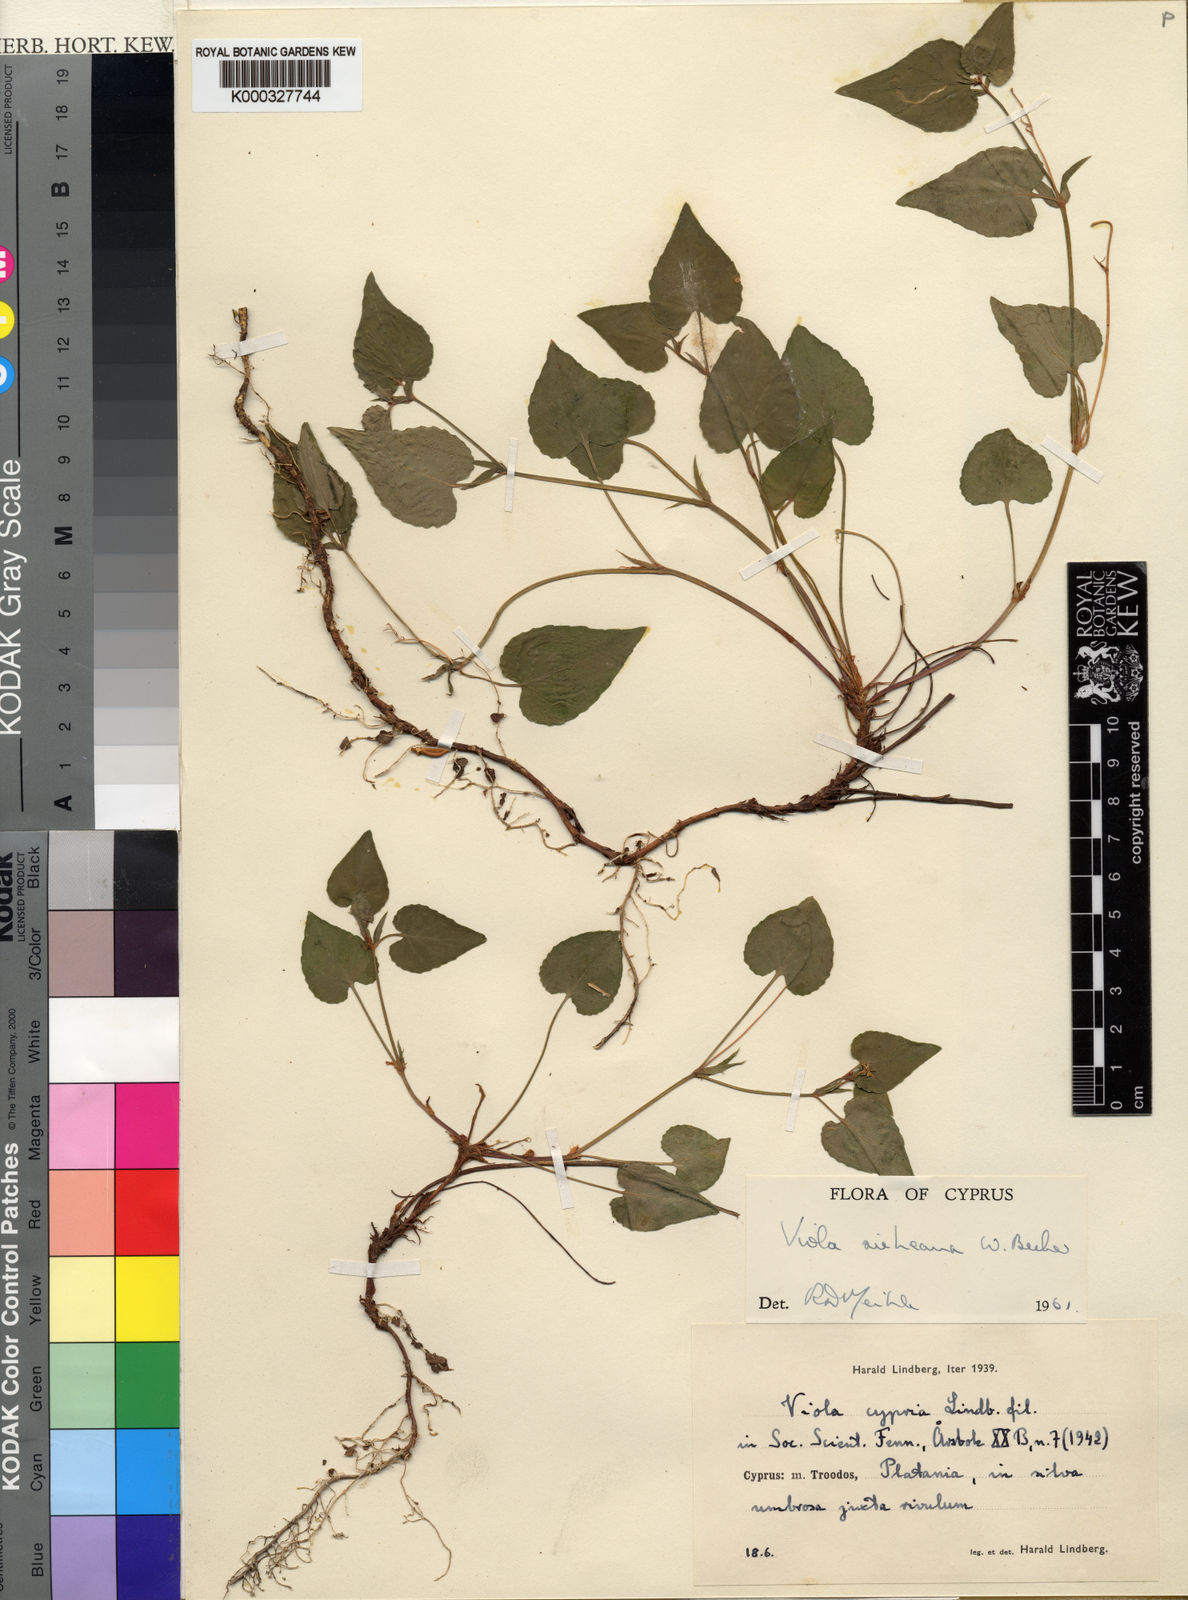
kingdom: Plantae
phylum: Tracheophyta
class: Magnoliopsida
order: Malpighiales
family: Violaceae
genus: Viola
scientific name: Viola sieheana
